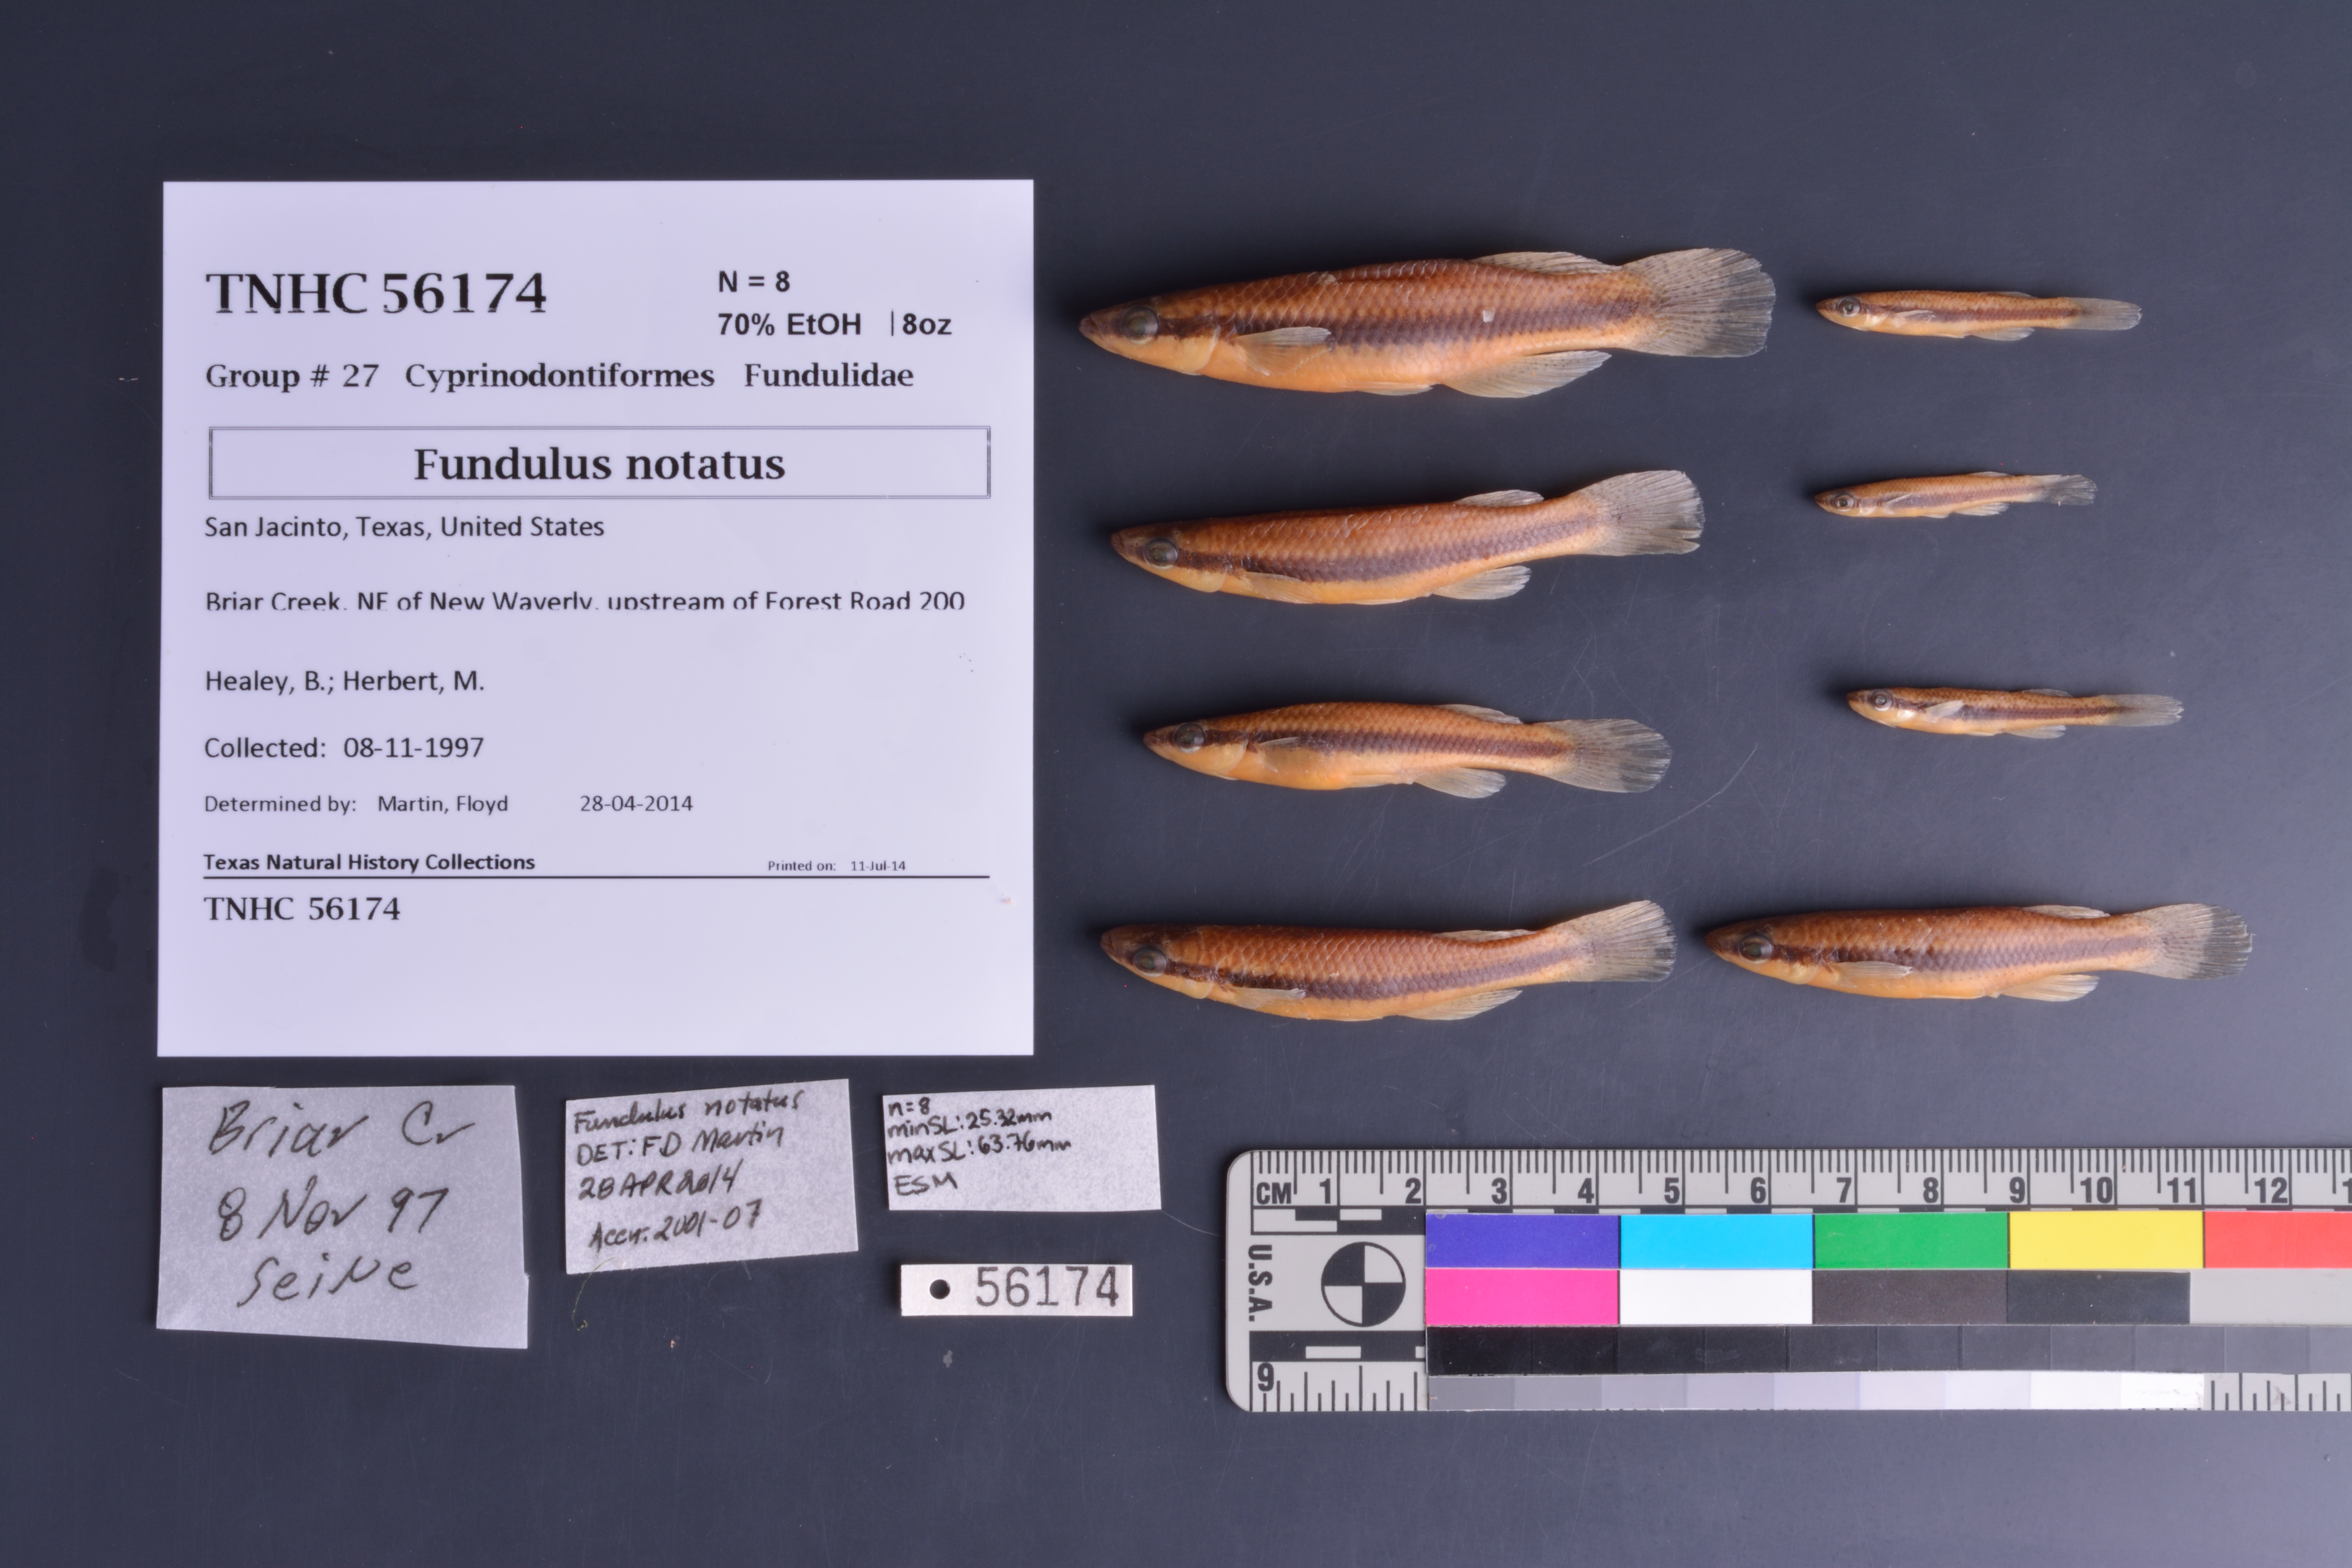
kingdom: Animalia
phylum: Chordata
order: Cyprinodontiformes
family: Fundulidae
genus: Fundulus
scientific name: Fundulus notatus
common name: Blackstripe topminnow
